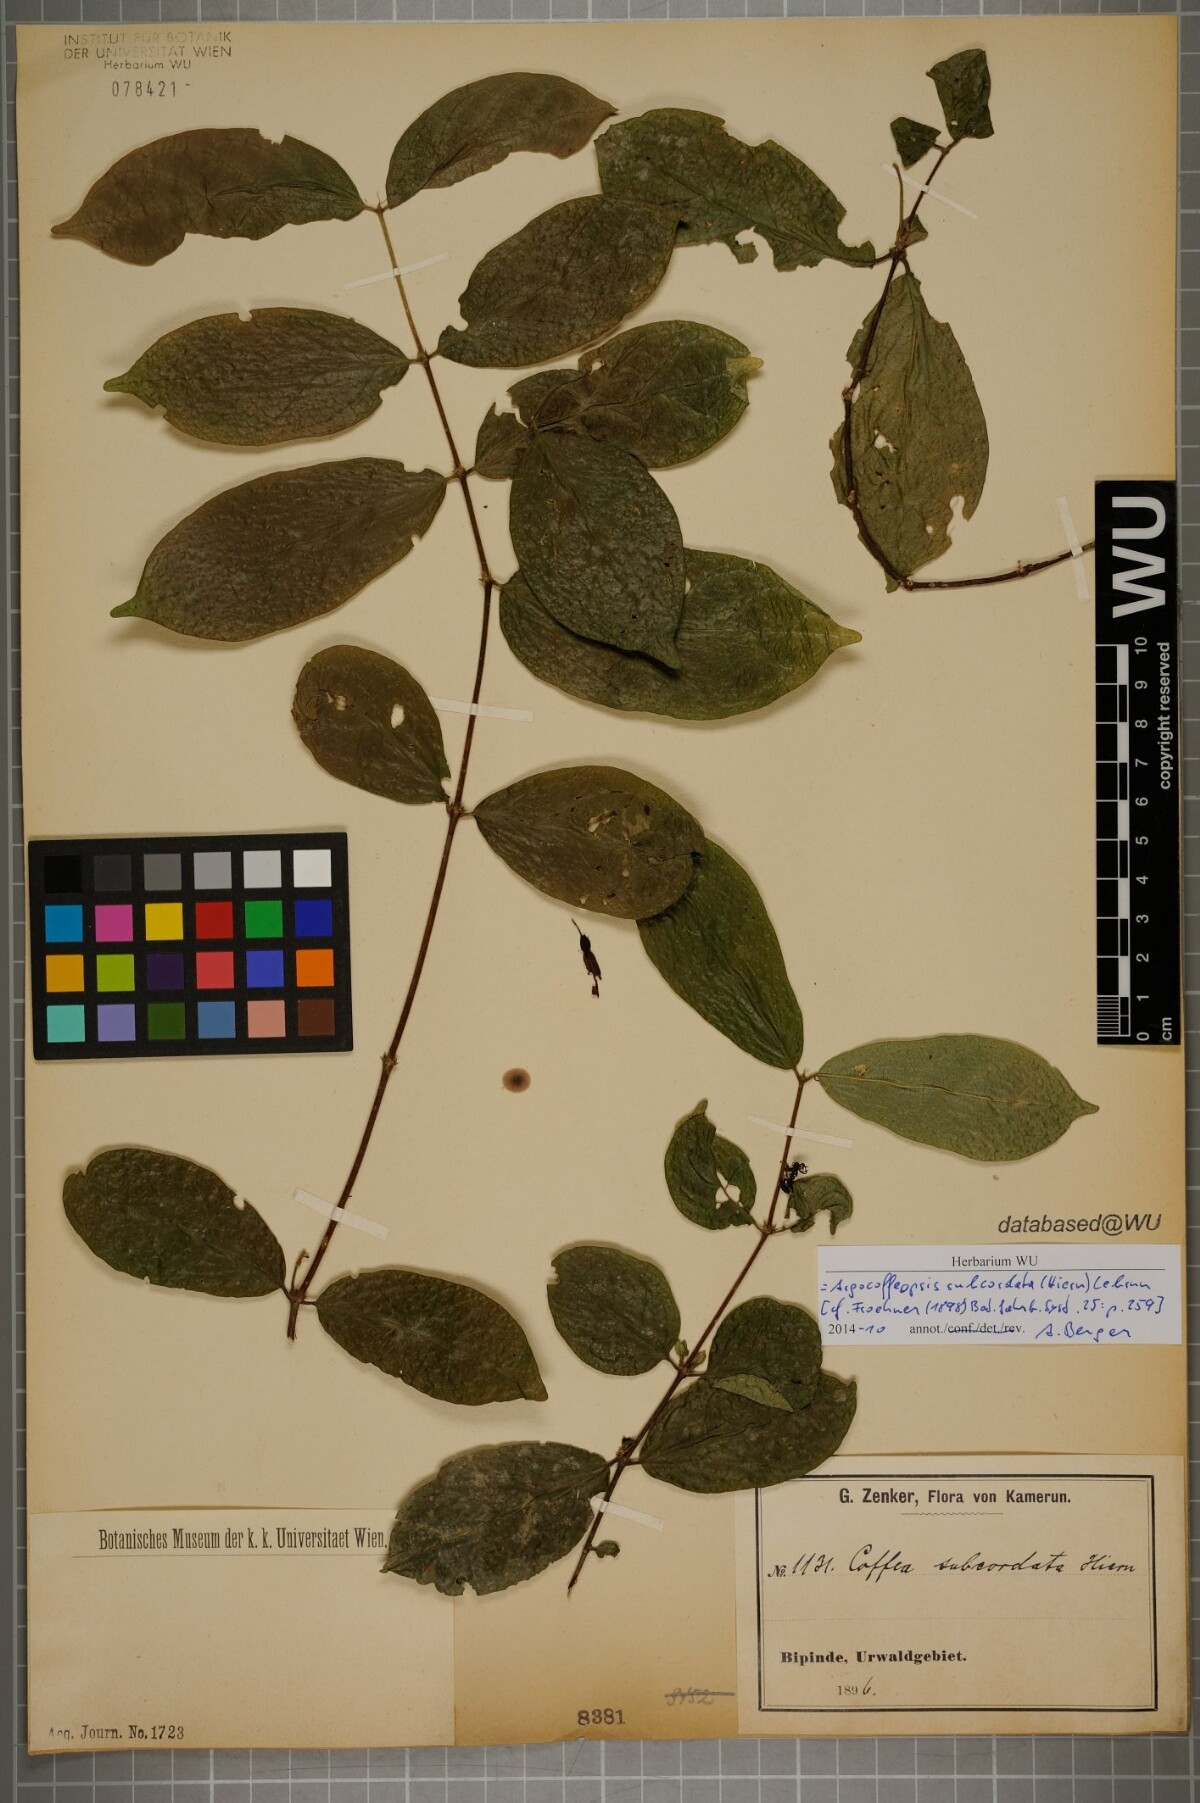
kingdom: Plantae
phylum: Tracheophyta
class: Magnoliopsida
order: Gentianales
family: Rubiaceae
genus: Argocoffeopsis
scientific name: Argocoffeopsis subcordata
